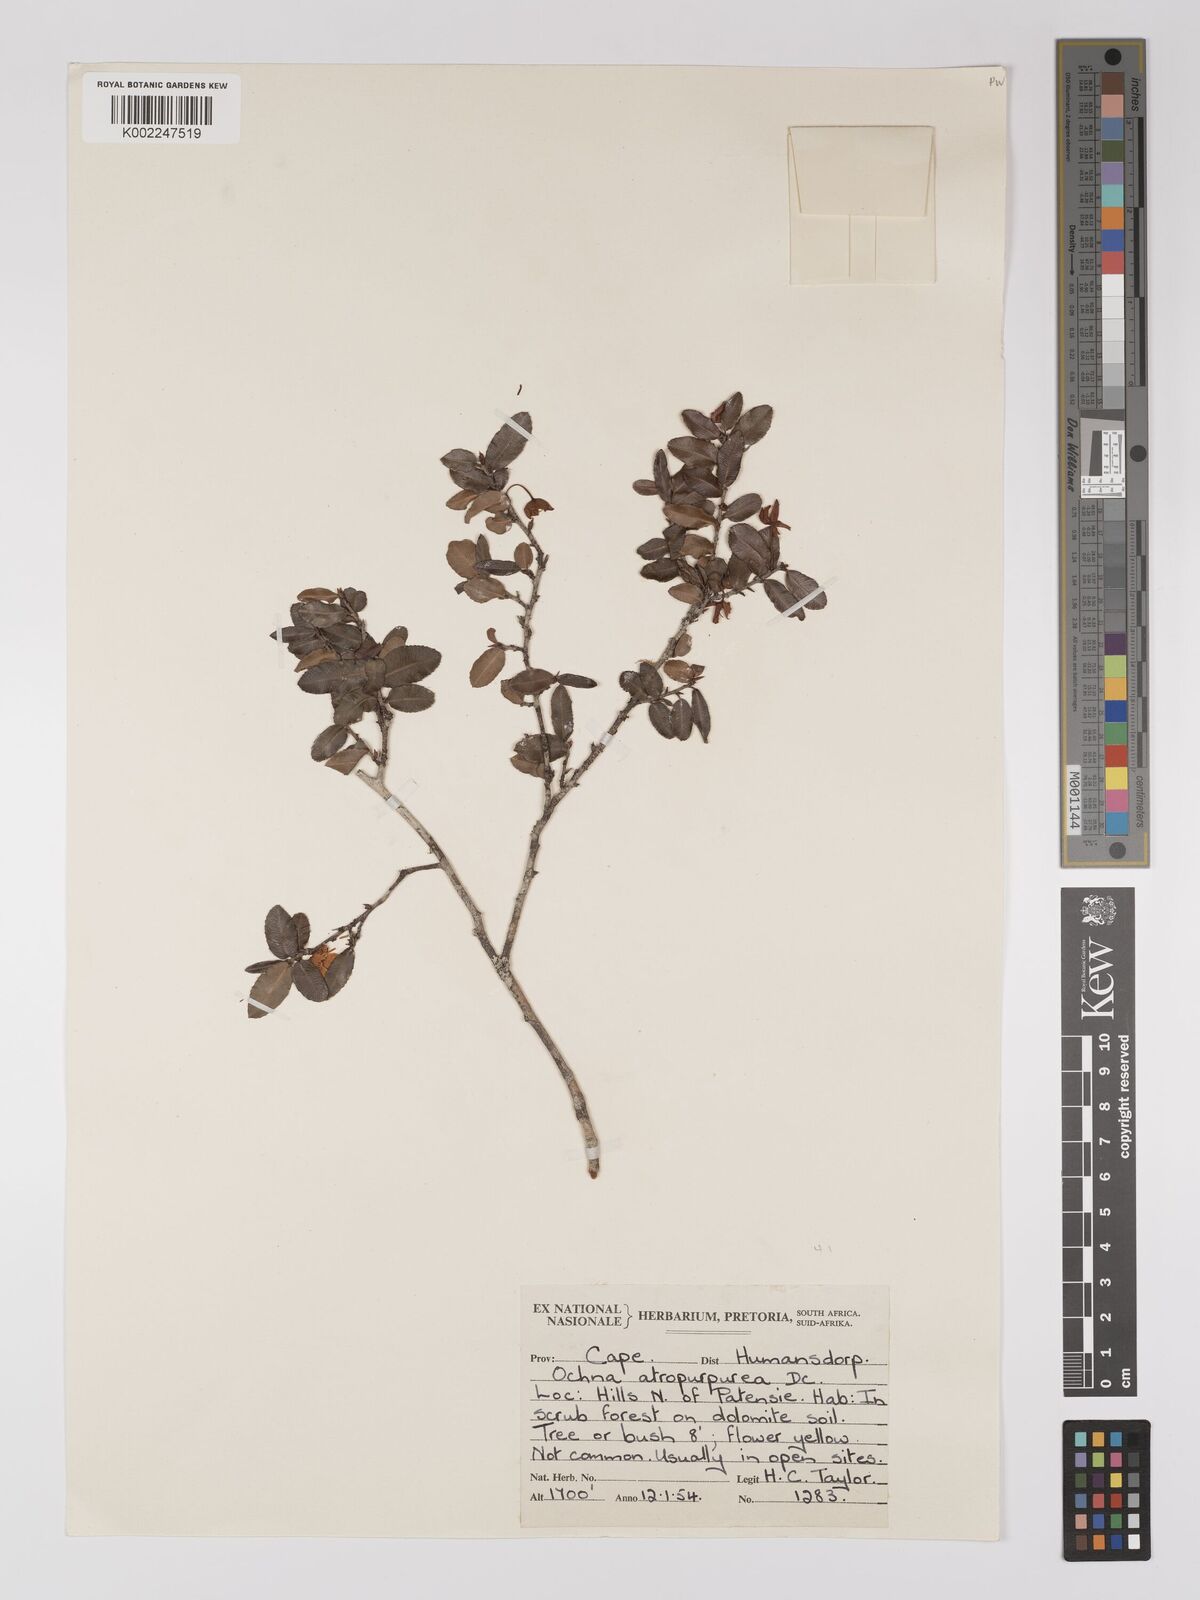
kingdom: Plantae
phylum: Tracheophyta
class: Magnoliopsida
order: Malpighiales
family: Ochnaceae
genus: Ochna
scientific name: Ochna serrulata
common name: Mickey mouse plant
